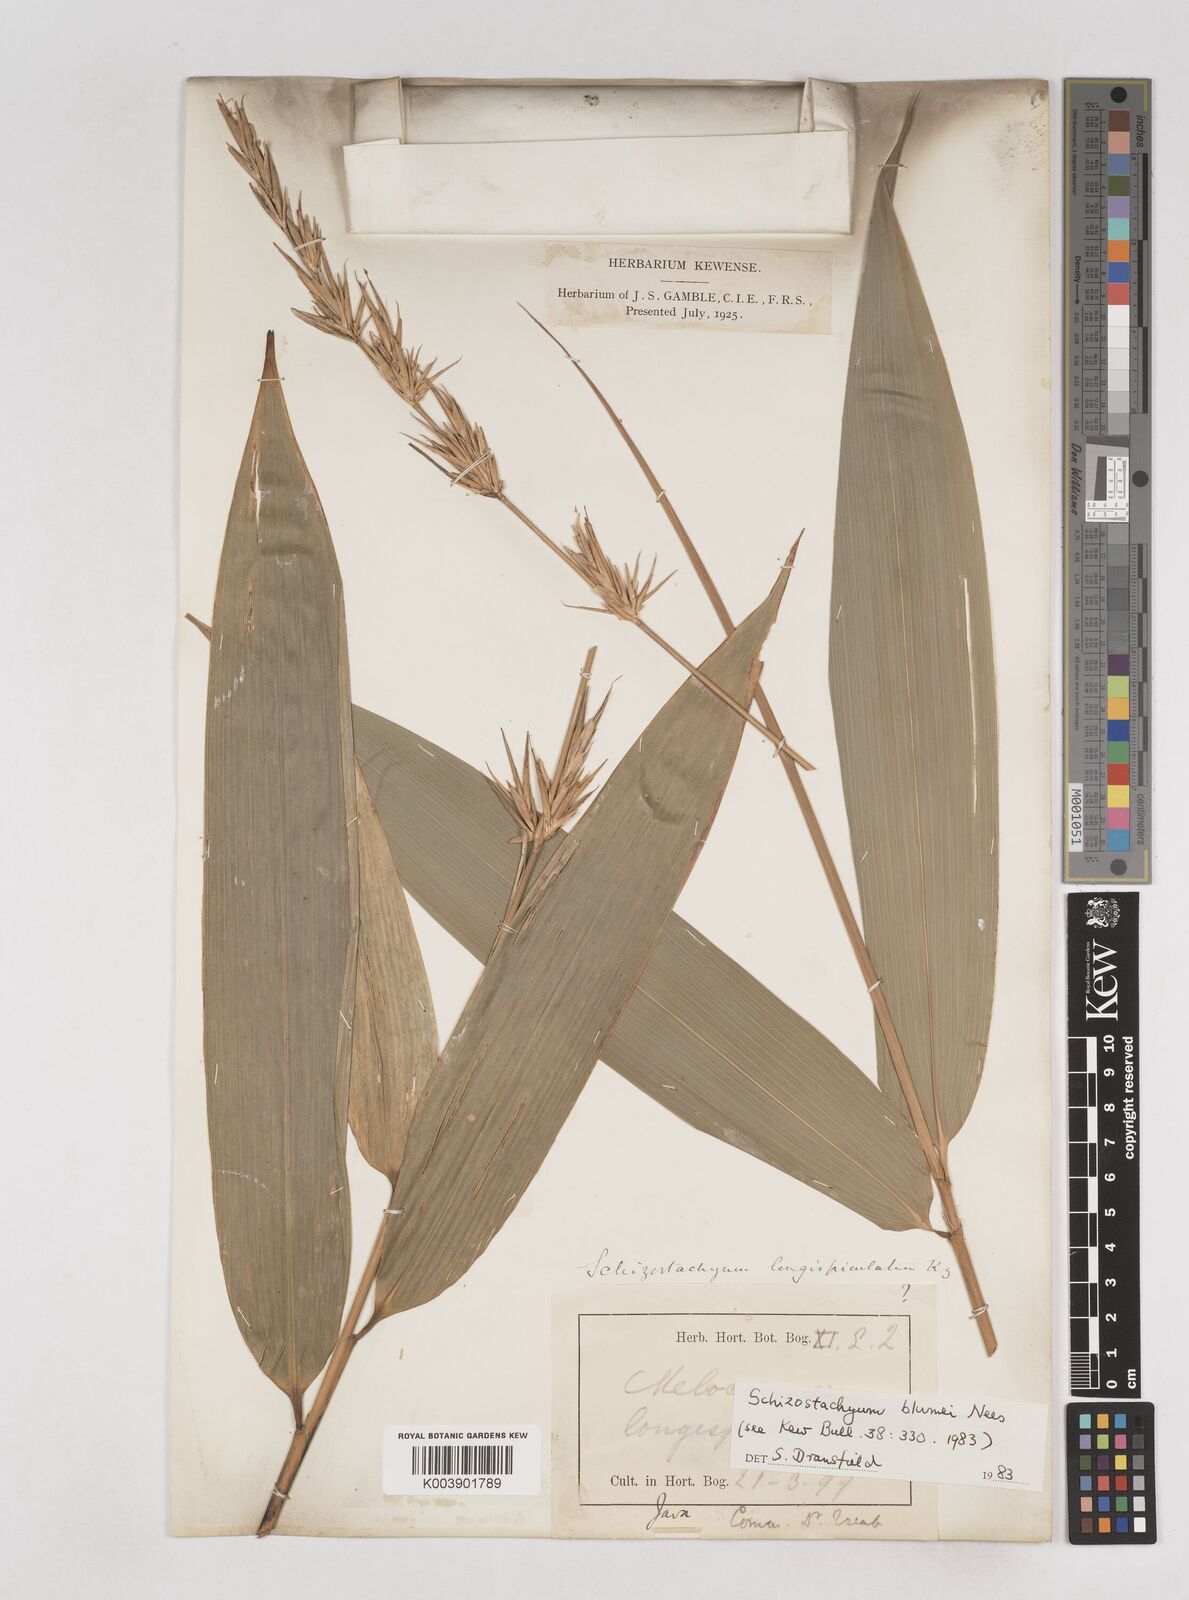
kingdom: Plantae
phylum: Tracheophyta
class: Liliopsida
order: Poales
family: Poaceae
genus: Schizostachyum
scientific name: Schizostachyum blumei
